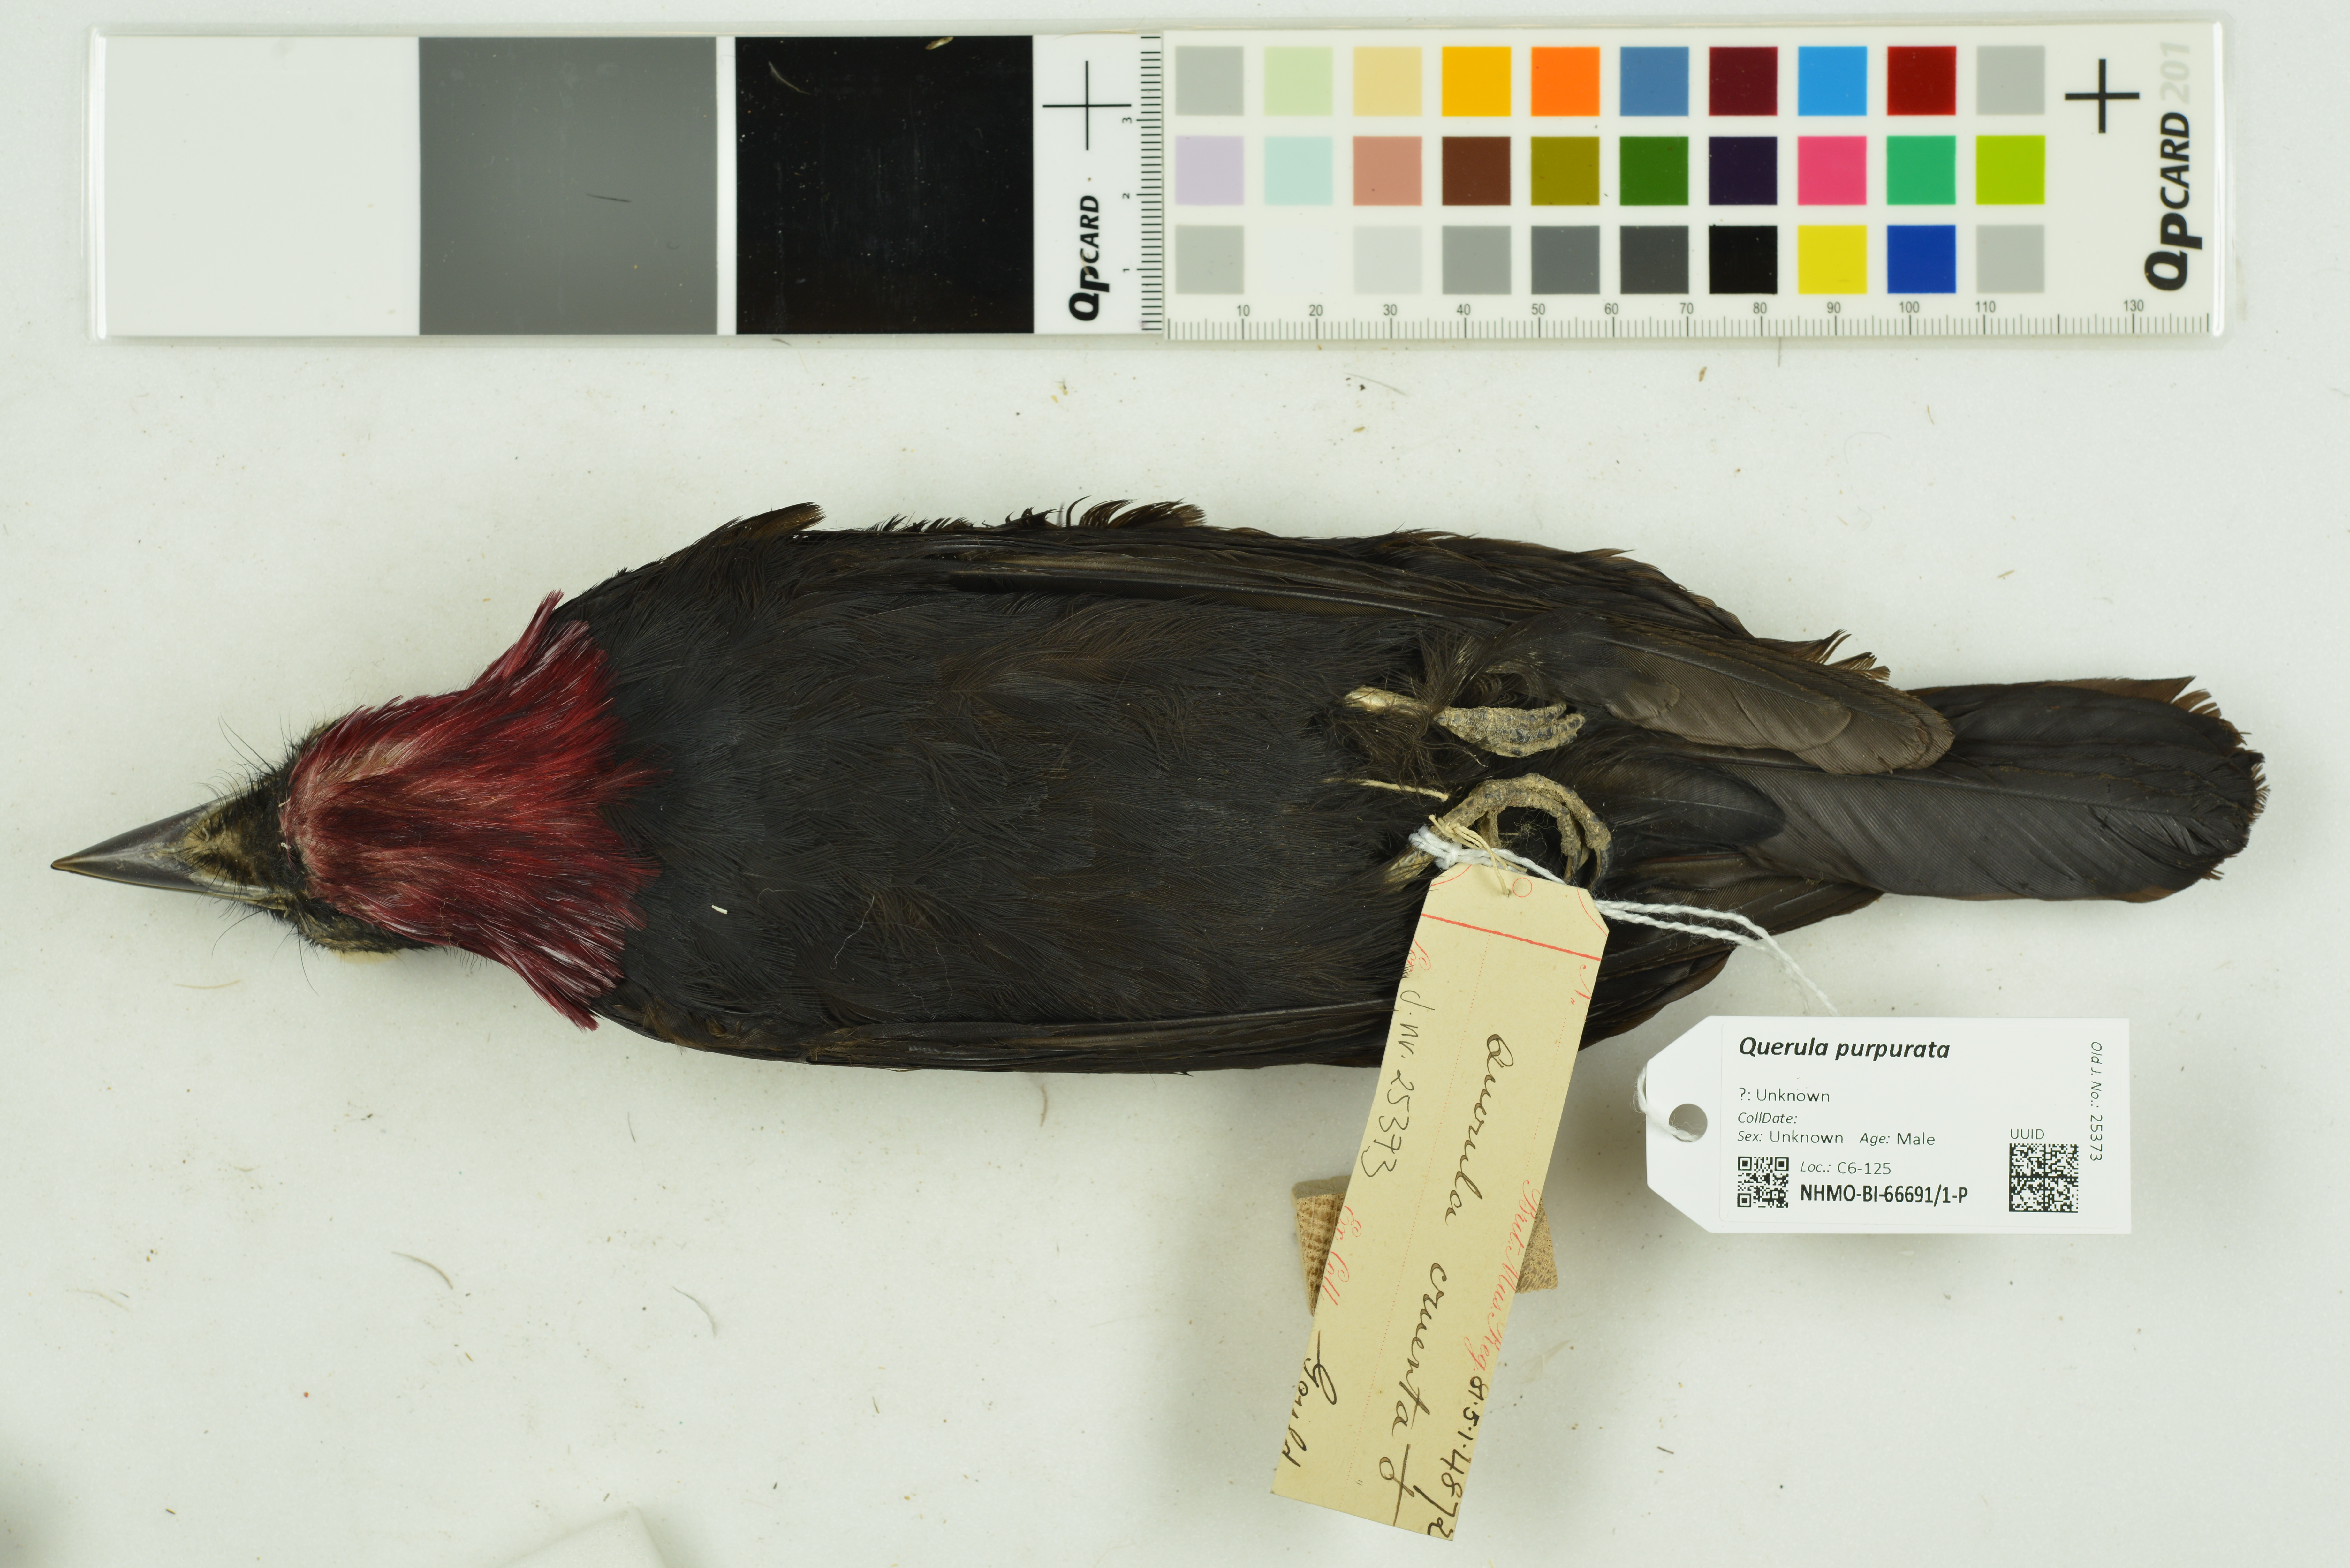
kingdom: Animalia
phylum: Chordata
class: Aves
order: Passeriformes
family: Cotingidae
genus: Querula
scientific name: Querula purpurata
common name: Purple-throated fruitcrow
